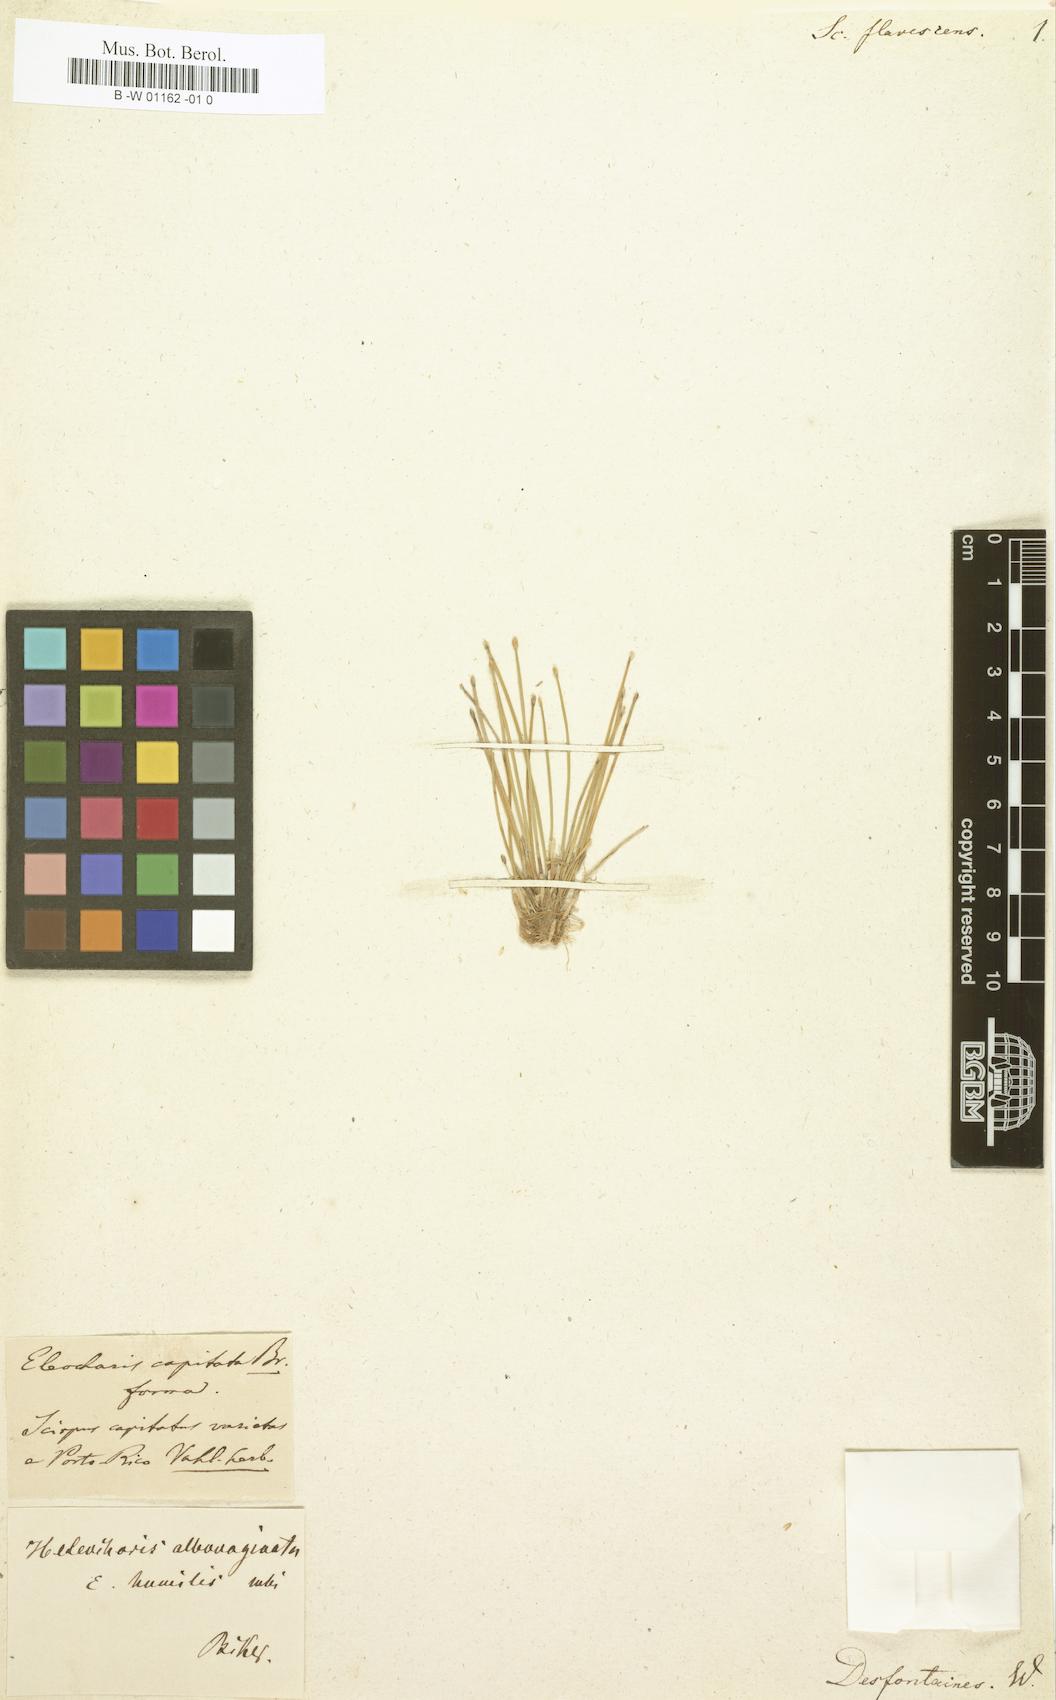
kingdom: Plantae
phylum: Tracheophyta
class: Liliopsida
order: Poales
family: Cyperaceae
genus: Eleocharis
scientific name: Eleocharis flavescens
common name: Yellow spikerush
